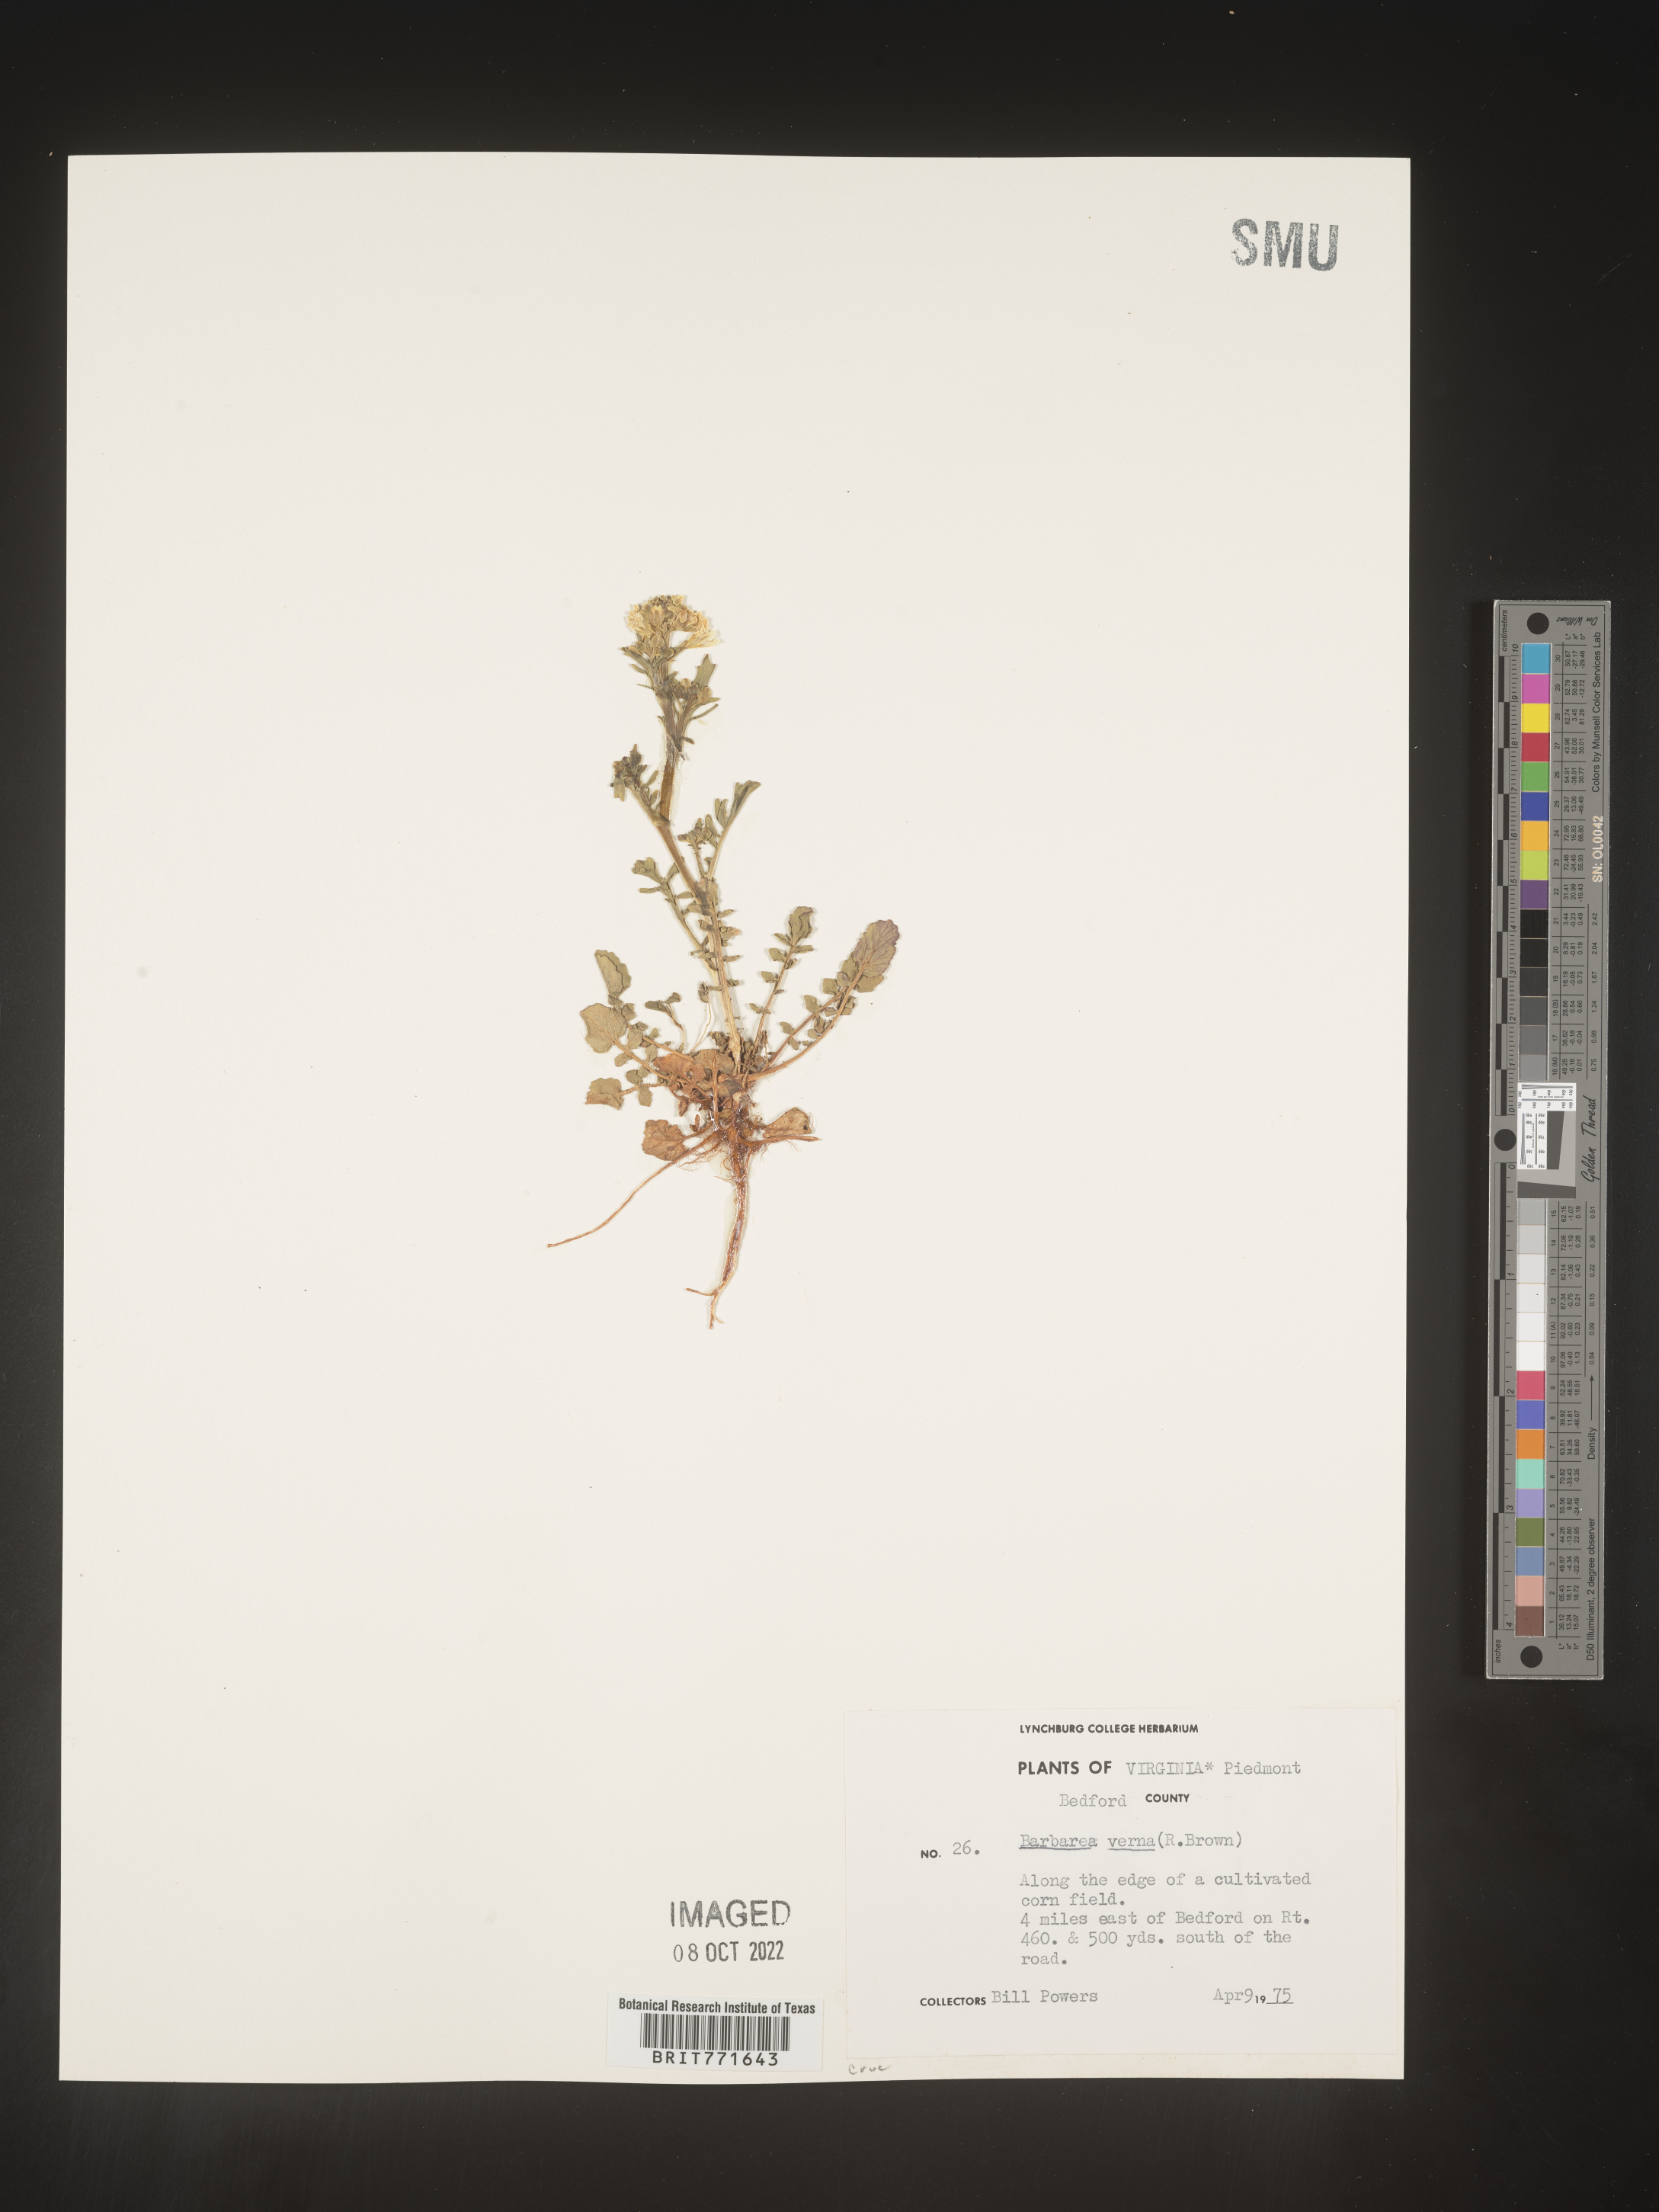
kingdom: Plantae
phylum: Tracheophyta
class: Magnoliopsida
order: Brassicales
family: Brassicaceae
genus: Barbarea
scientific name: Barbarea verna
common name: American cress
